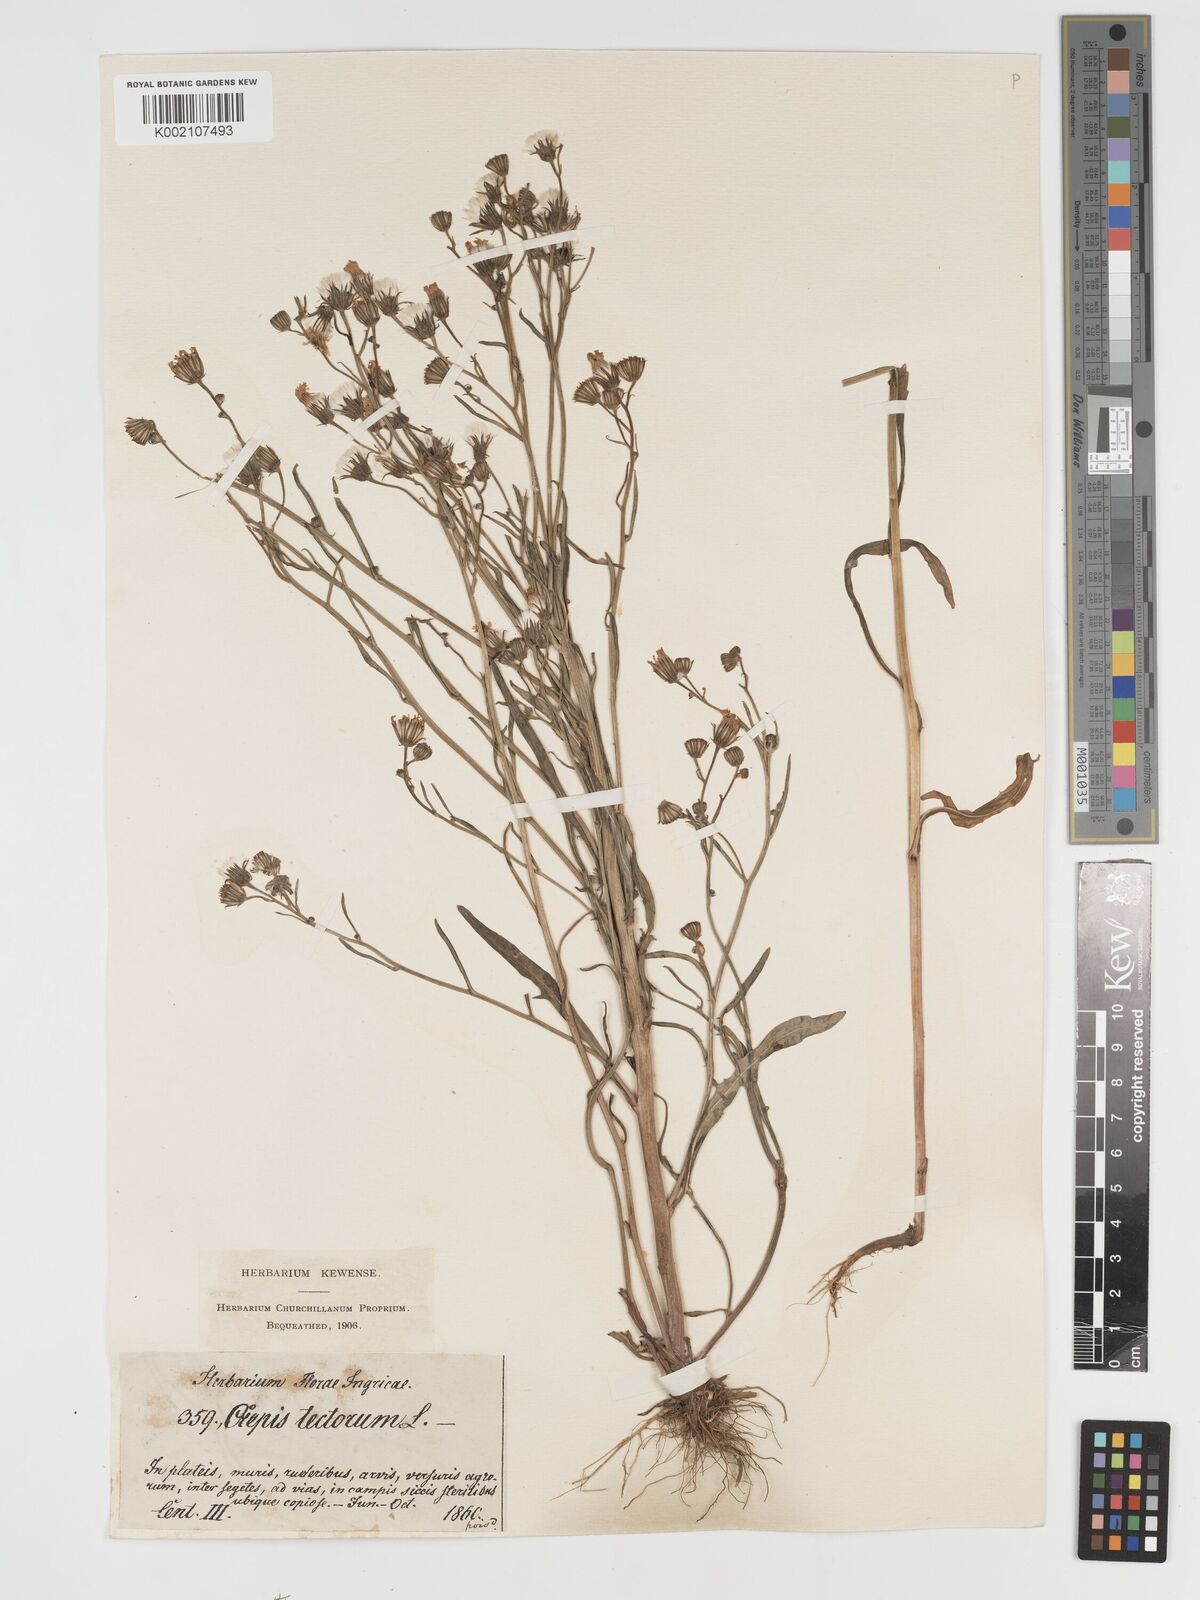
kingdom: Plantae
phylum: Tracheophyta
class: Magnoliopsida
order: Asterales
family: Asteraceae
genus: Crepis
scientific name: Crepis tectorum
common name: Narrow-leaved hawk's-beard
